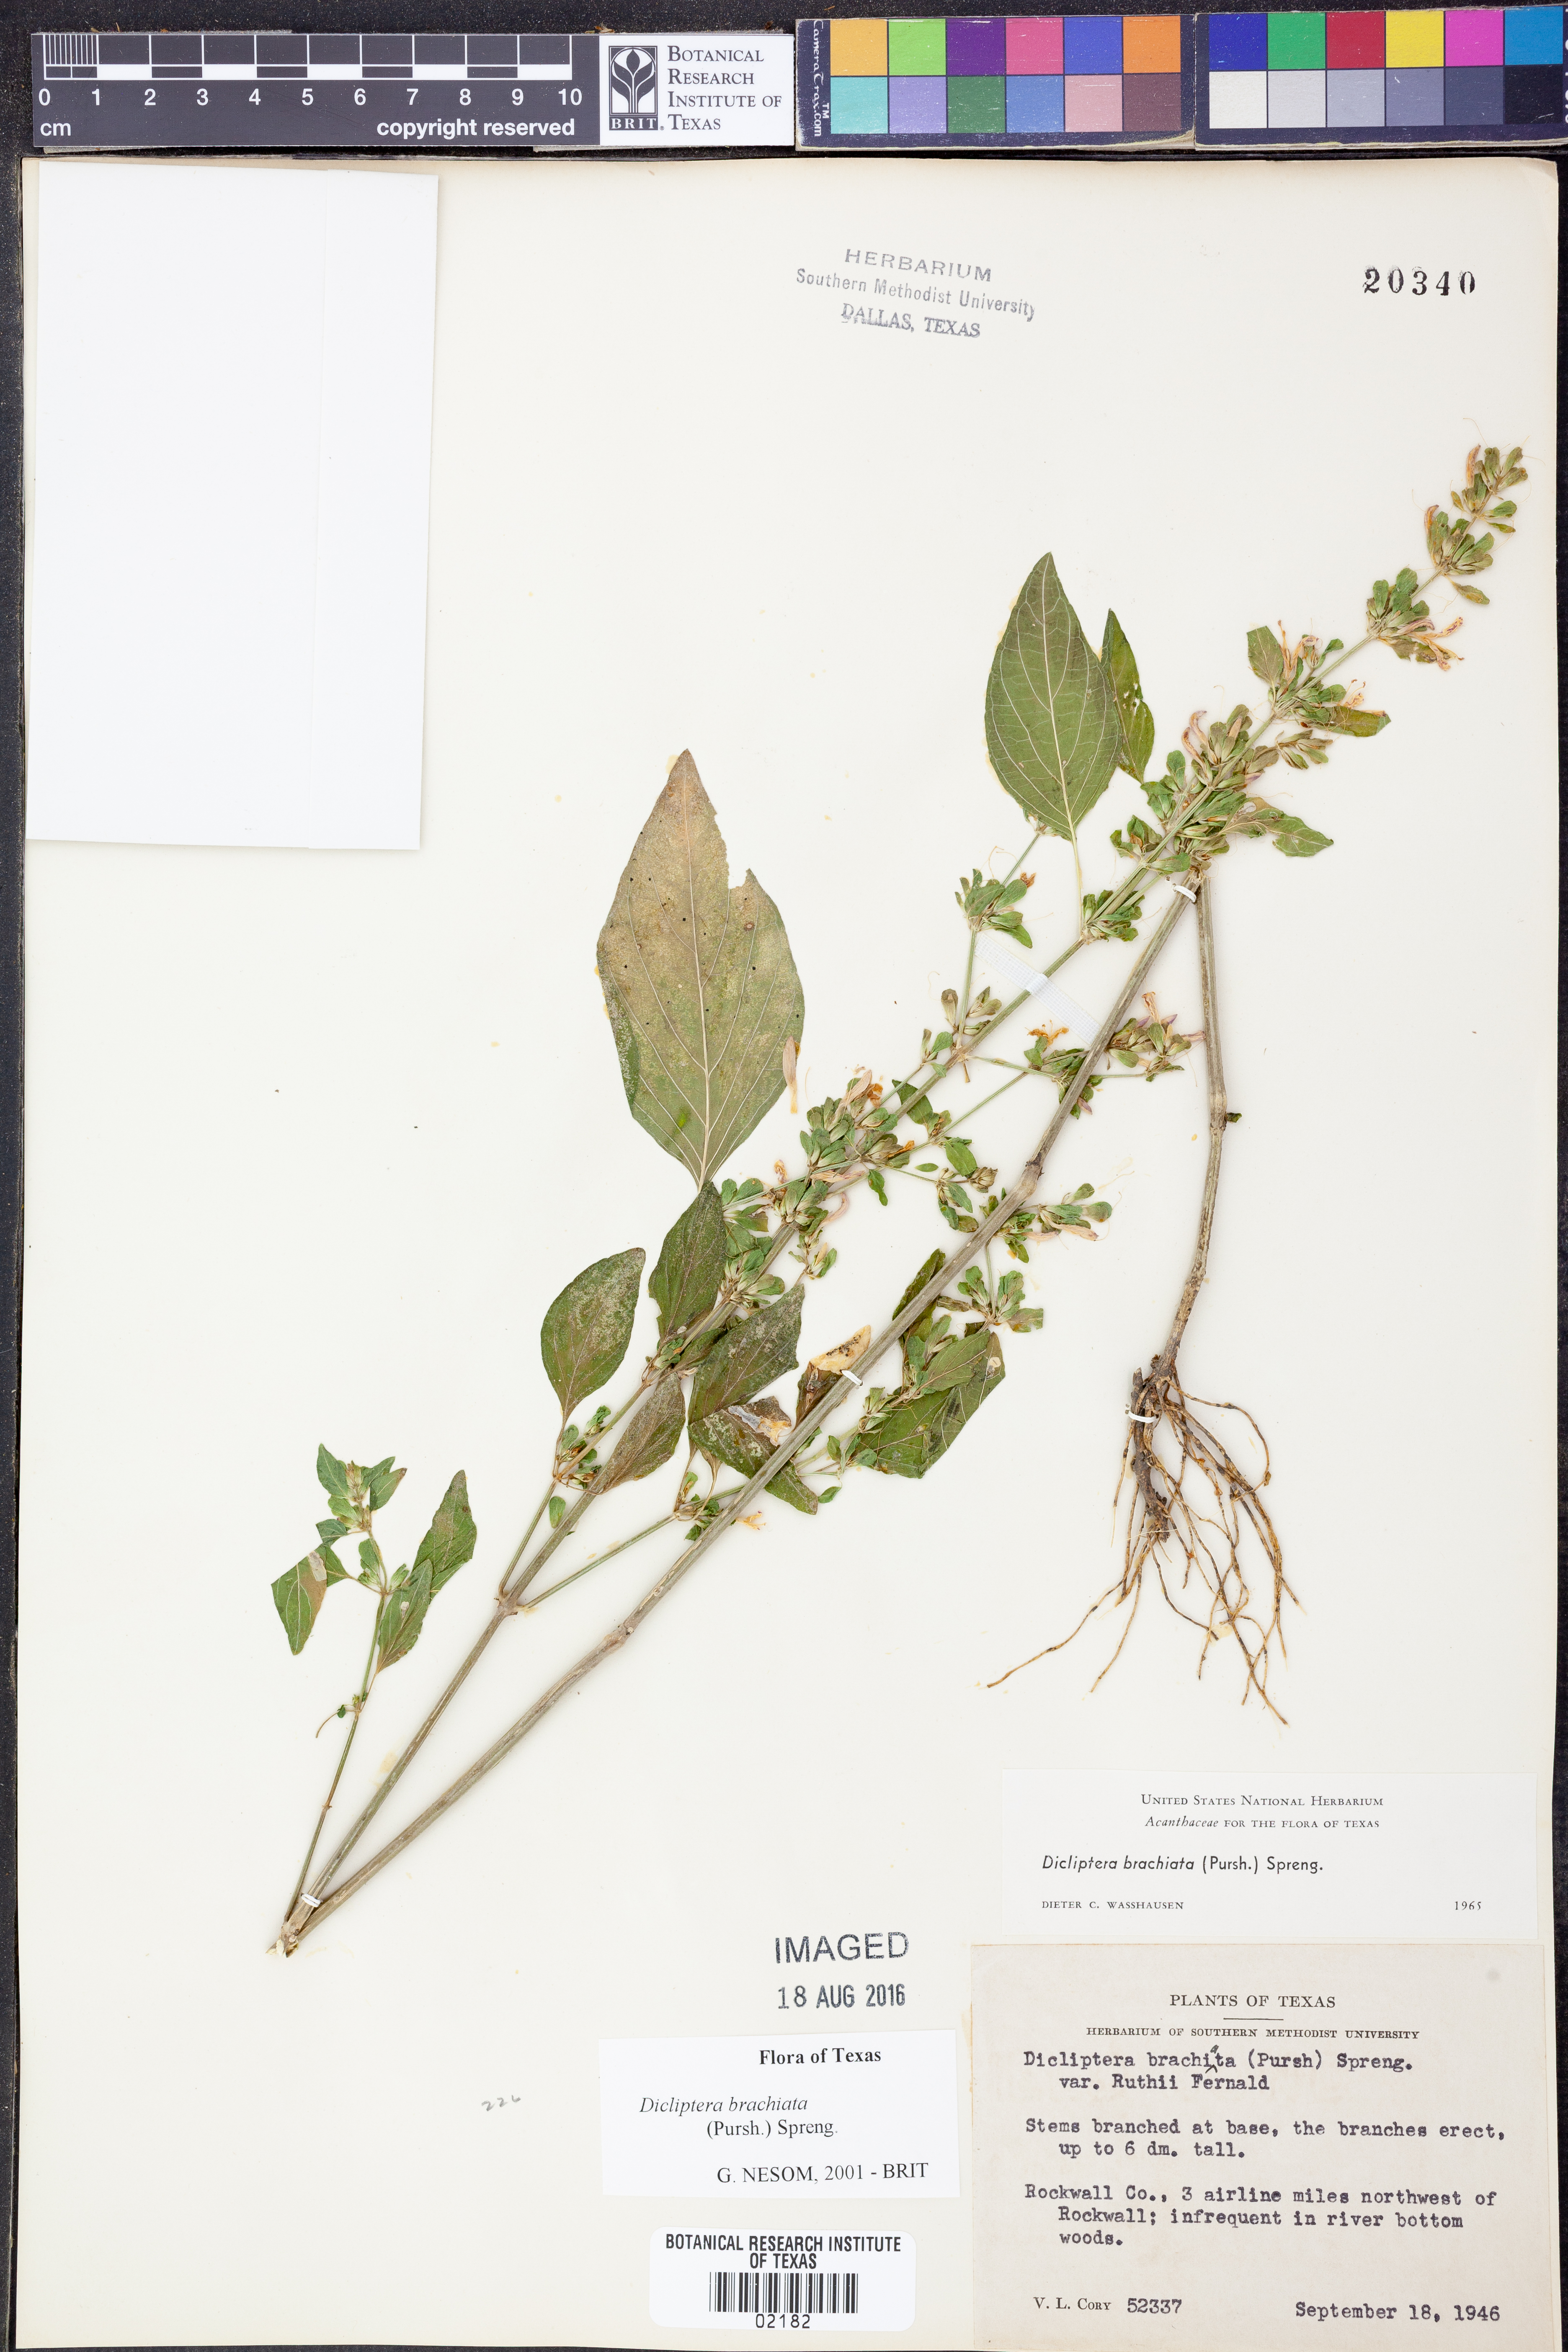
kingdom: Plantae
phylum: Tracheophyta
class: Magnoliopsida
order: Lamiales
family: Acanthaceae
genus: Dicliptera
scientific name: Dicliptera brachiata
